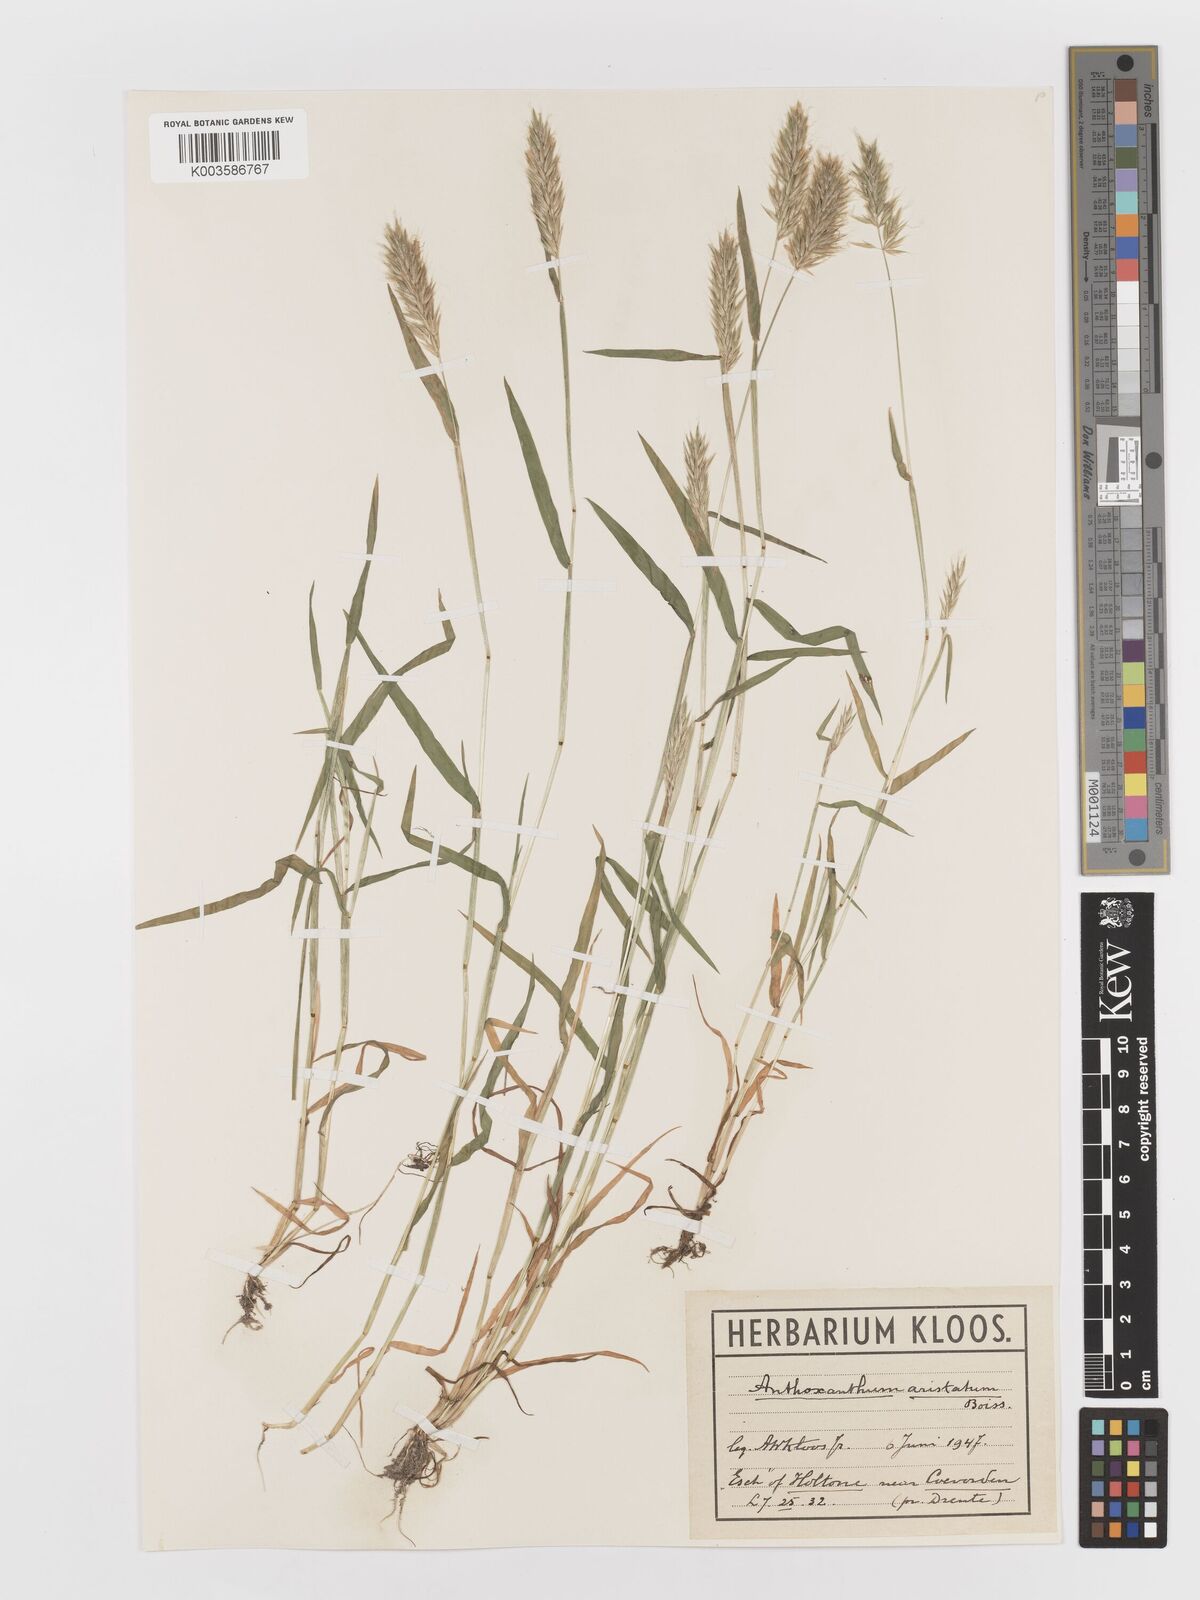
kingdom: Plantae
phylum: Tracheophyta
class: Liliopsida
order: Poales
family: Poaceae
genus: Anthoxanthum
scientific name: Anthoxanthum aristatum
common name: Annual vernal-grass
